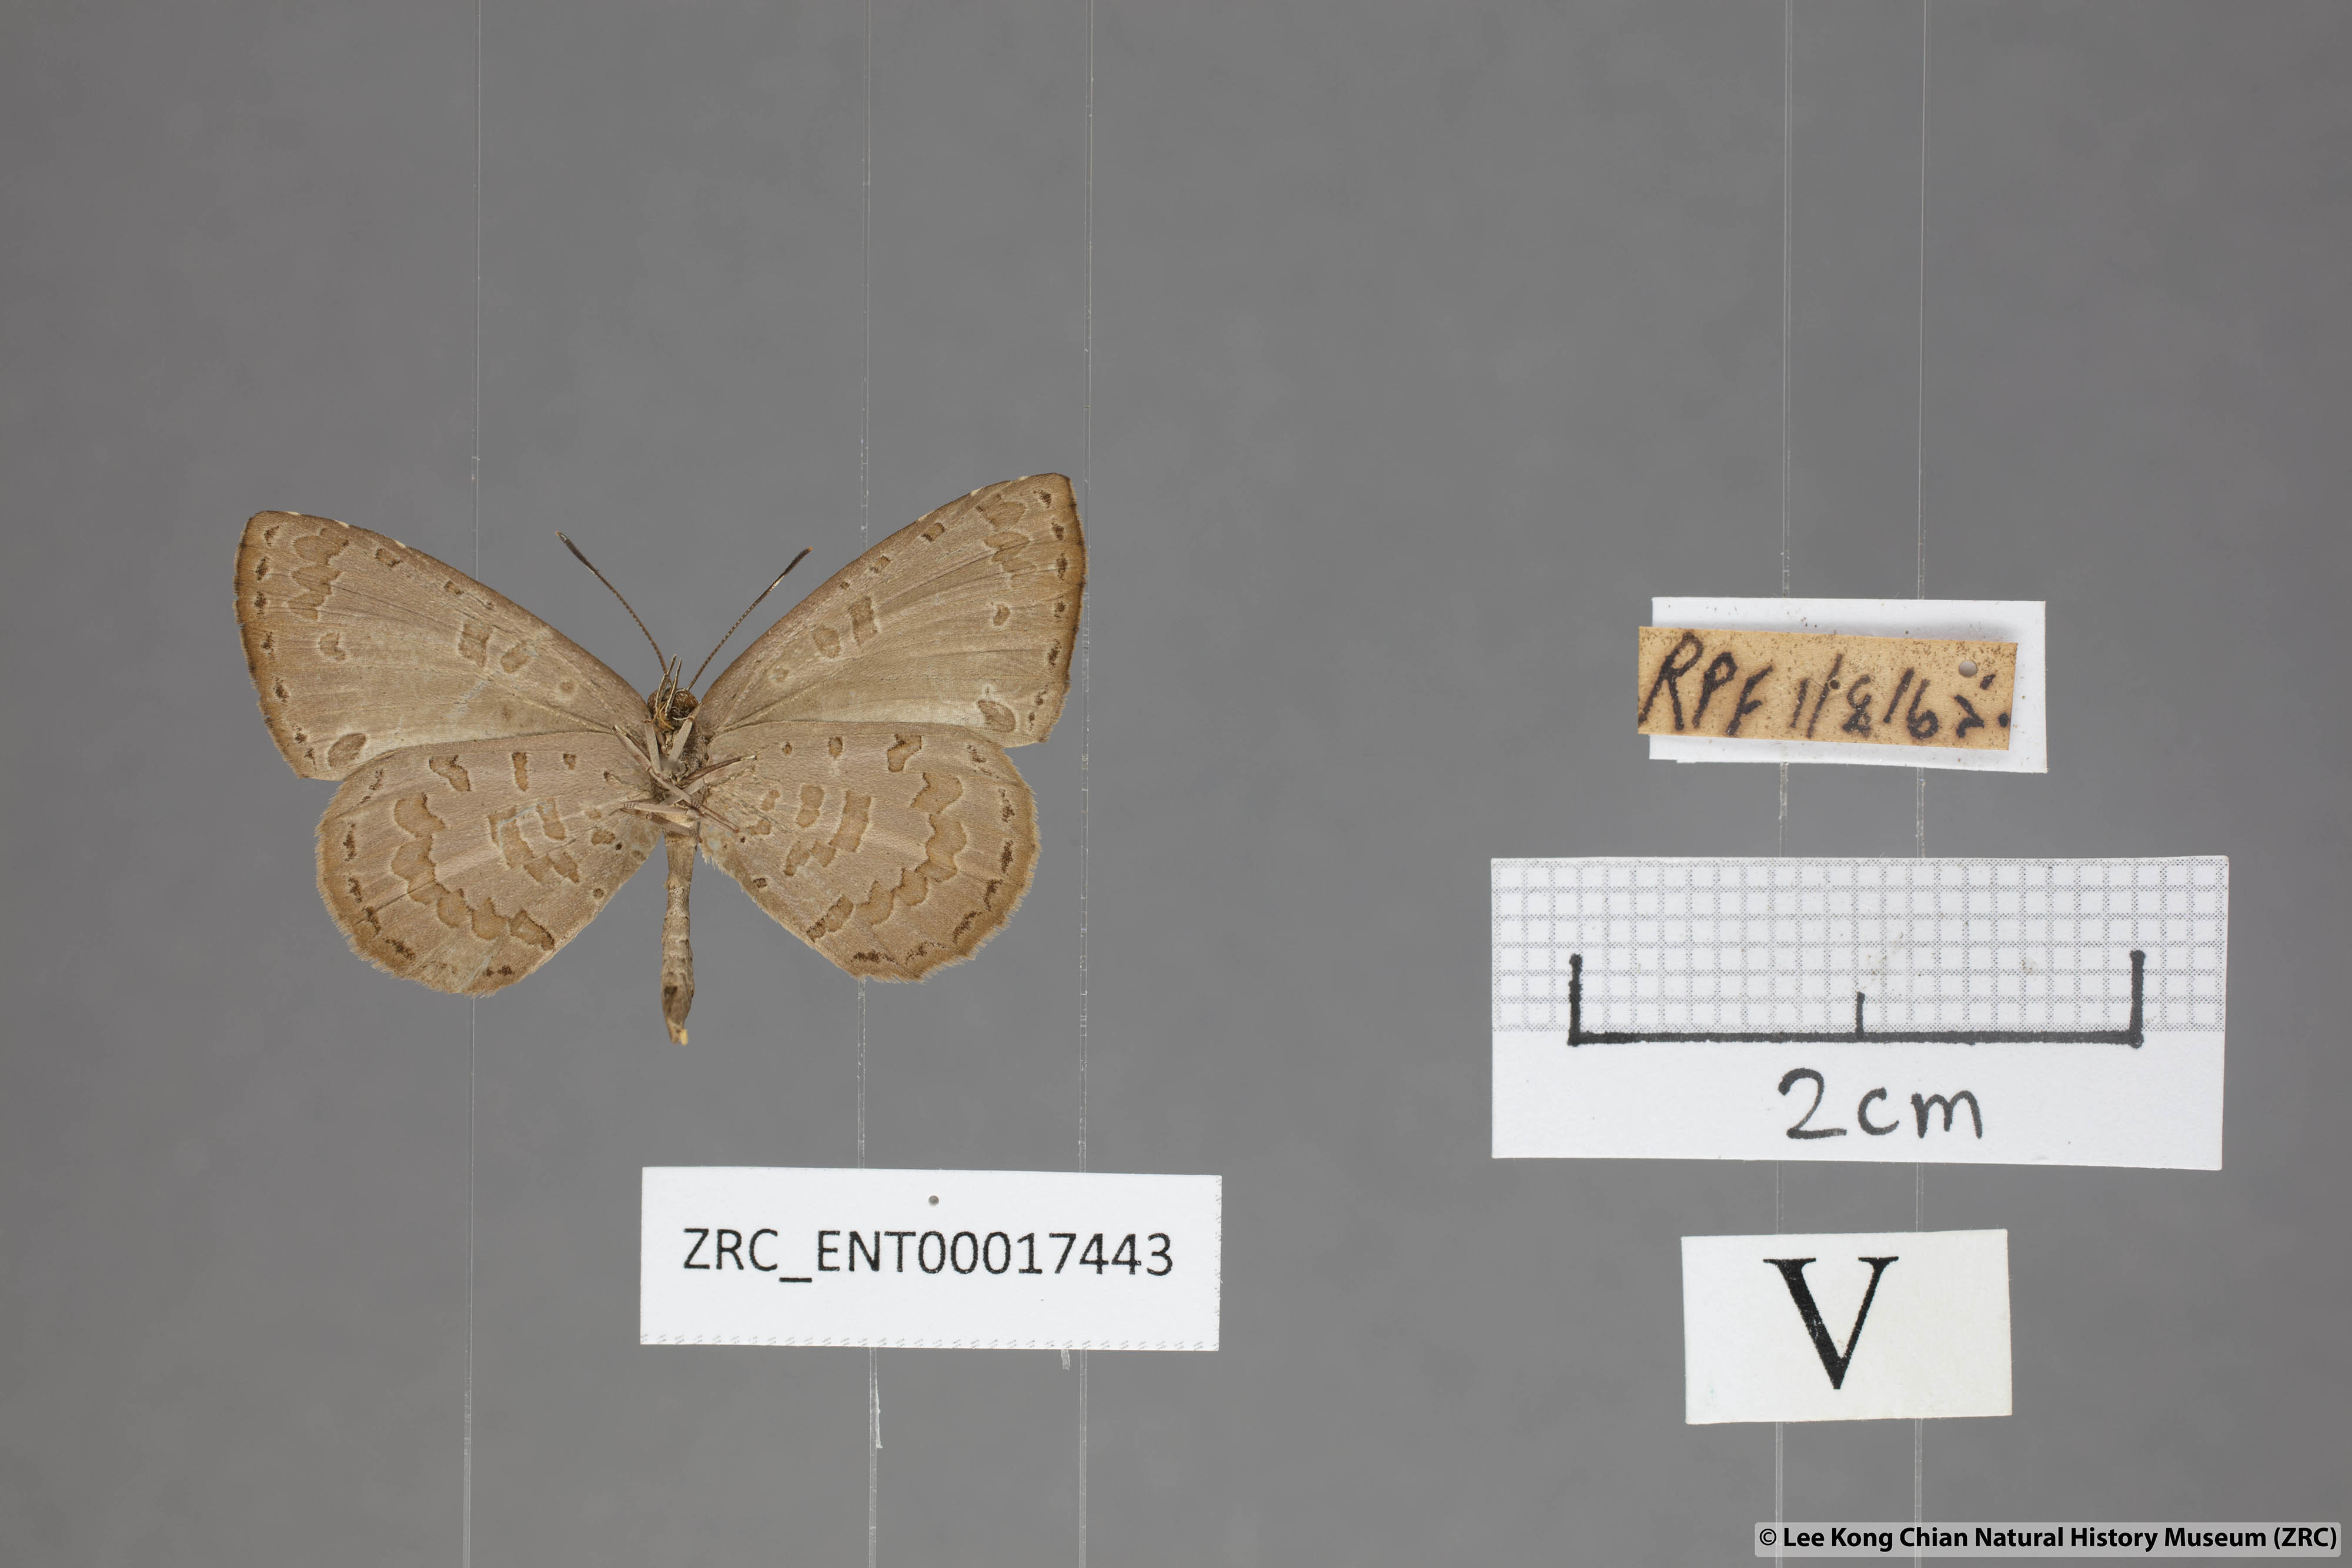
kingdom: Animalia
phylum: Arthropoda
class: Insecta
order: Lepidoptera
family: Lycaenidae
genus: Miletus
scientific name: Miletus gaesa
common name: Brown brownie
